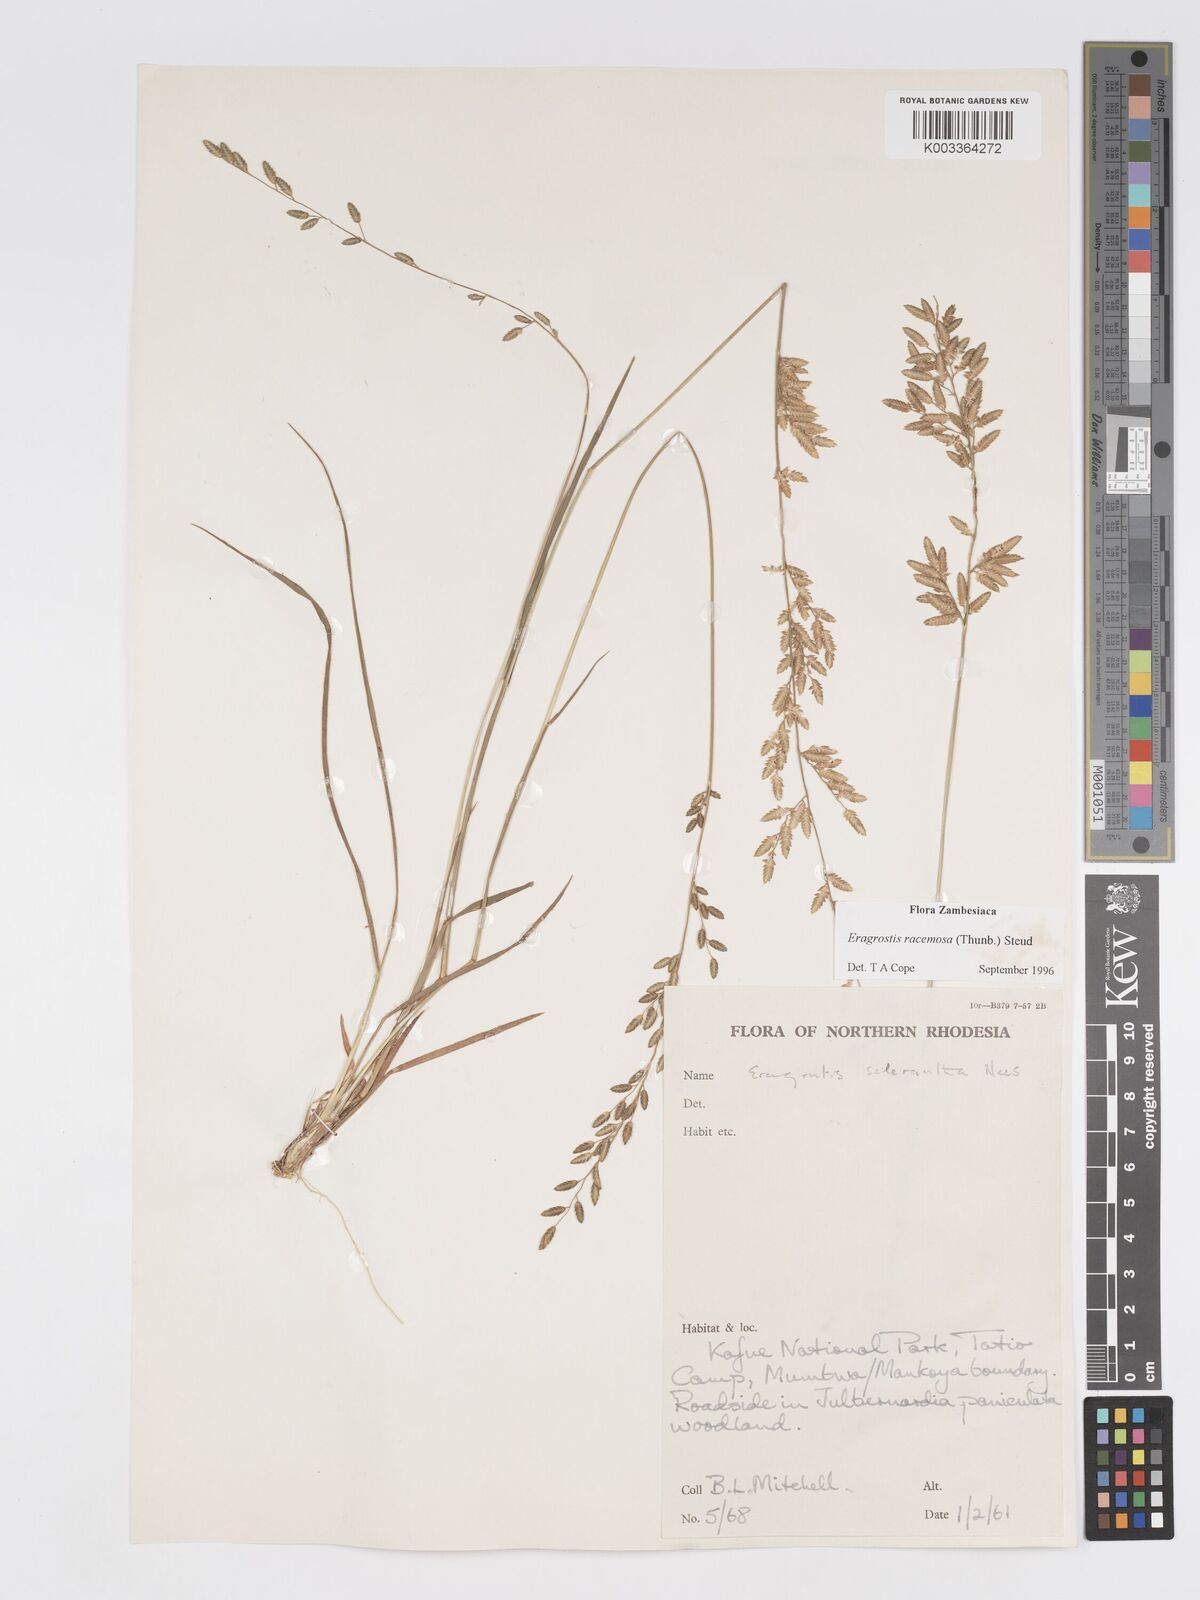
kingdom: Plantae
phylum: Tracheophyta
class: Liliopsida
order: Poales
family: Poaceae
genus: Eragrostis
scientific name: Eragrostis racemosa
